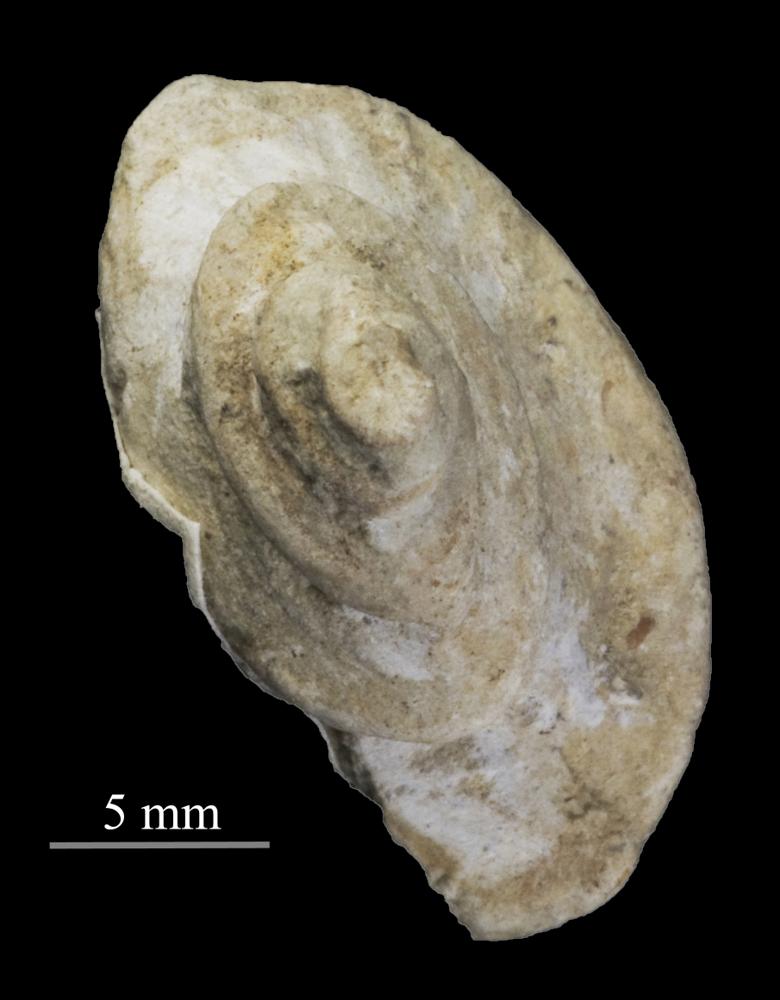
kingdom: Animalia
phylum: Mollusca
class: Gastropoda
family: Lophospiridae
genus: Loxoplocus
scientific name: Loxoplocus Turbo silurica
